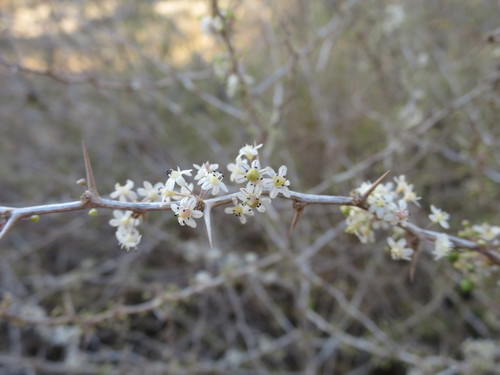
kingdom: Plantae
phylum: Tracheophyta
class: Liliopsida
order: Asparagales
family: Asparagaceae
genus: Asparagus
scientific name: Asparagus albus
